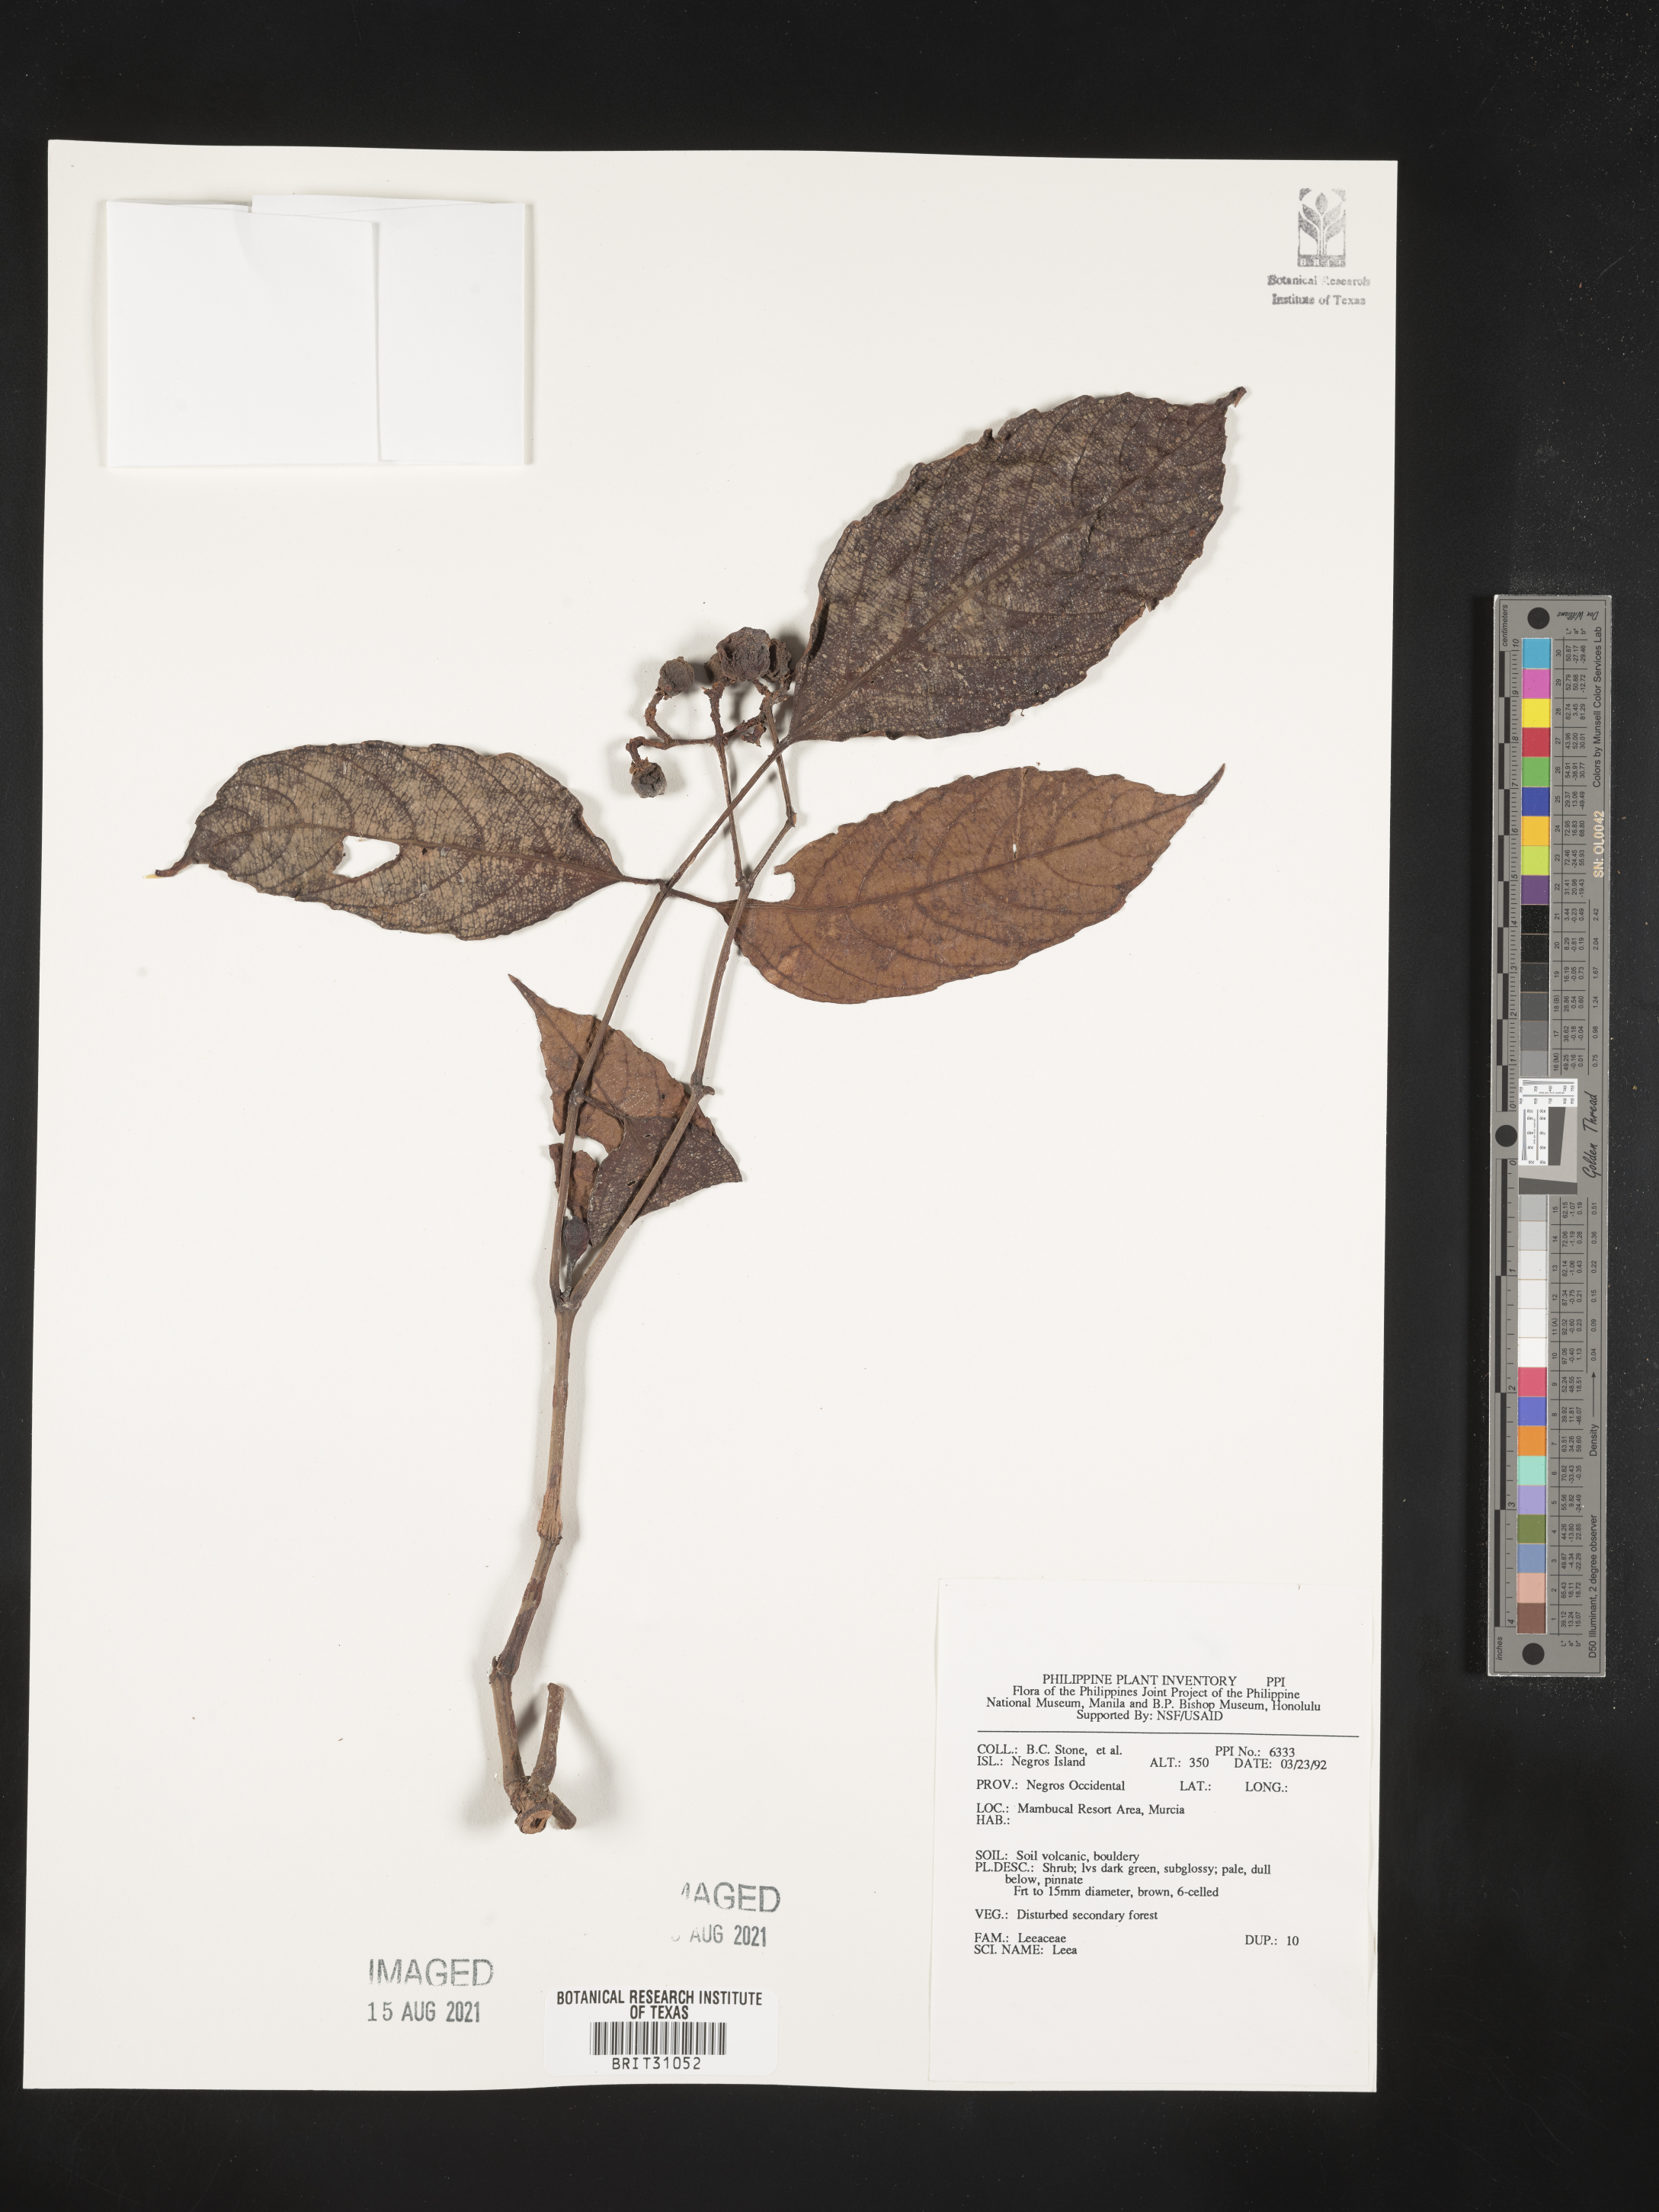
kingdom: Plantae
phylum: Tracheophyta
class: Magnoliopsida
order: Vitales
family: Vitaceae
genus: Leea
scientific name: Leea
